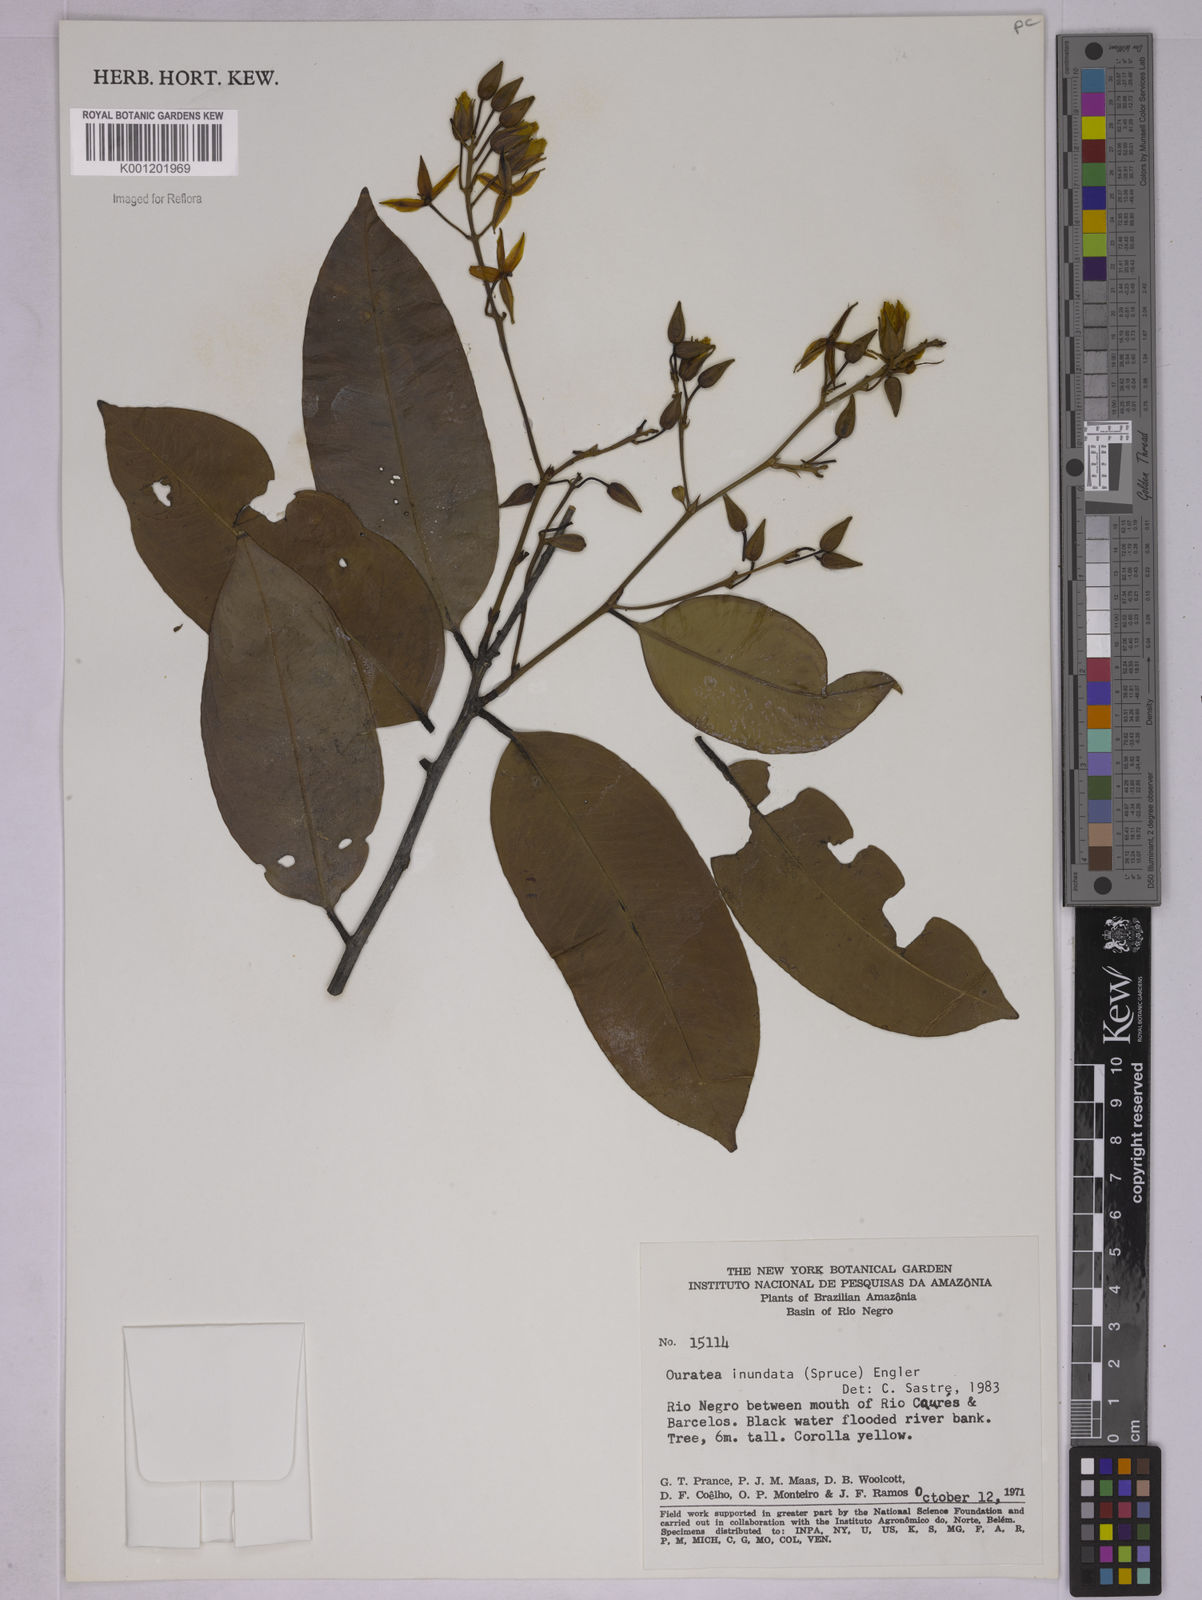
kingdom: Plantae
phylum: Tracheophyta
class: Magnoliopsida
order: Malpighiales
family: Ochnaceae
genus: Ouratea
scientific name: Ouratea inundata
